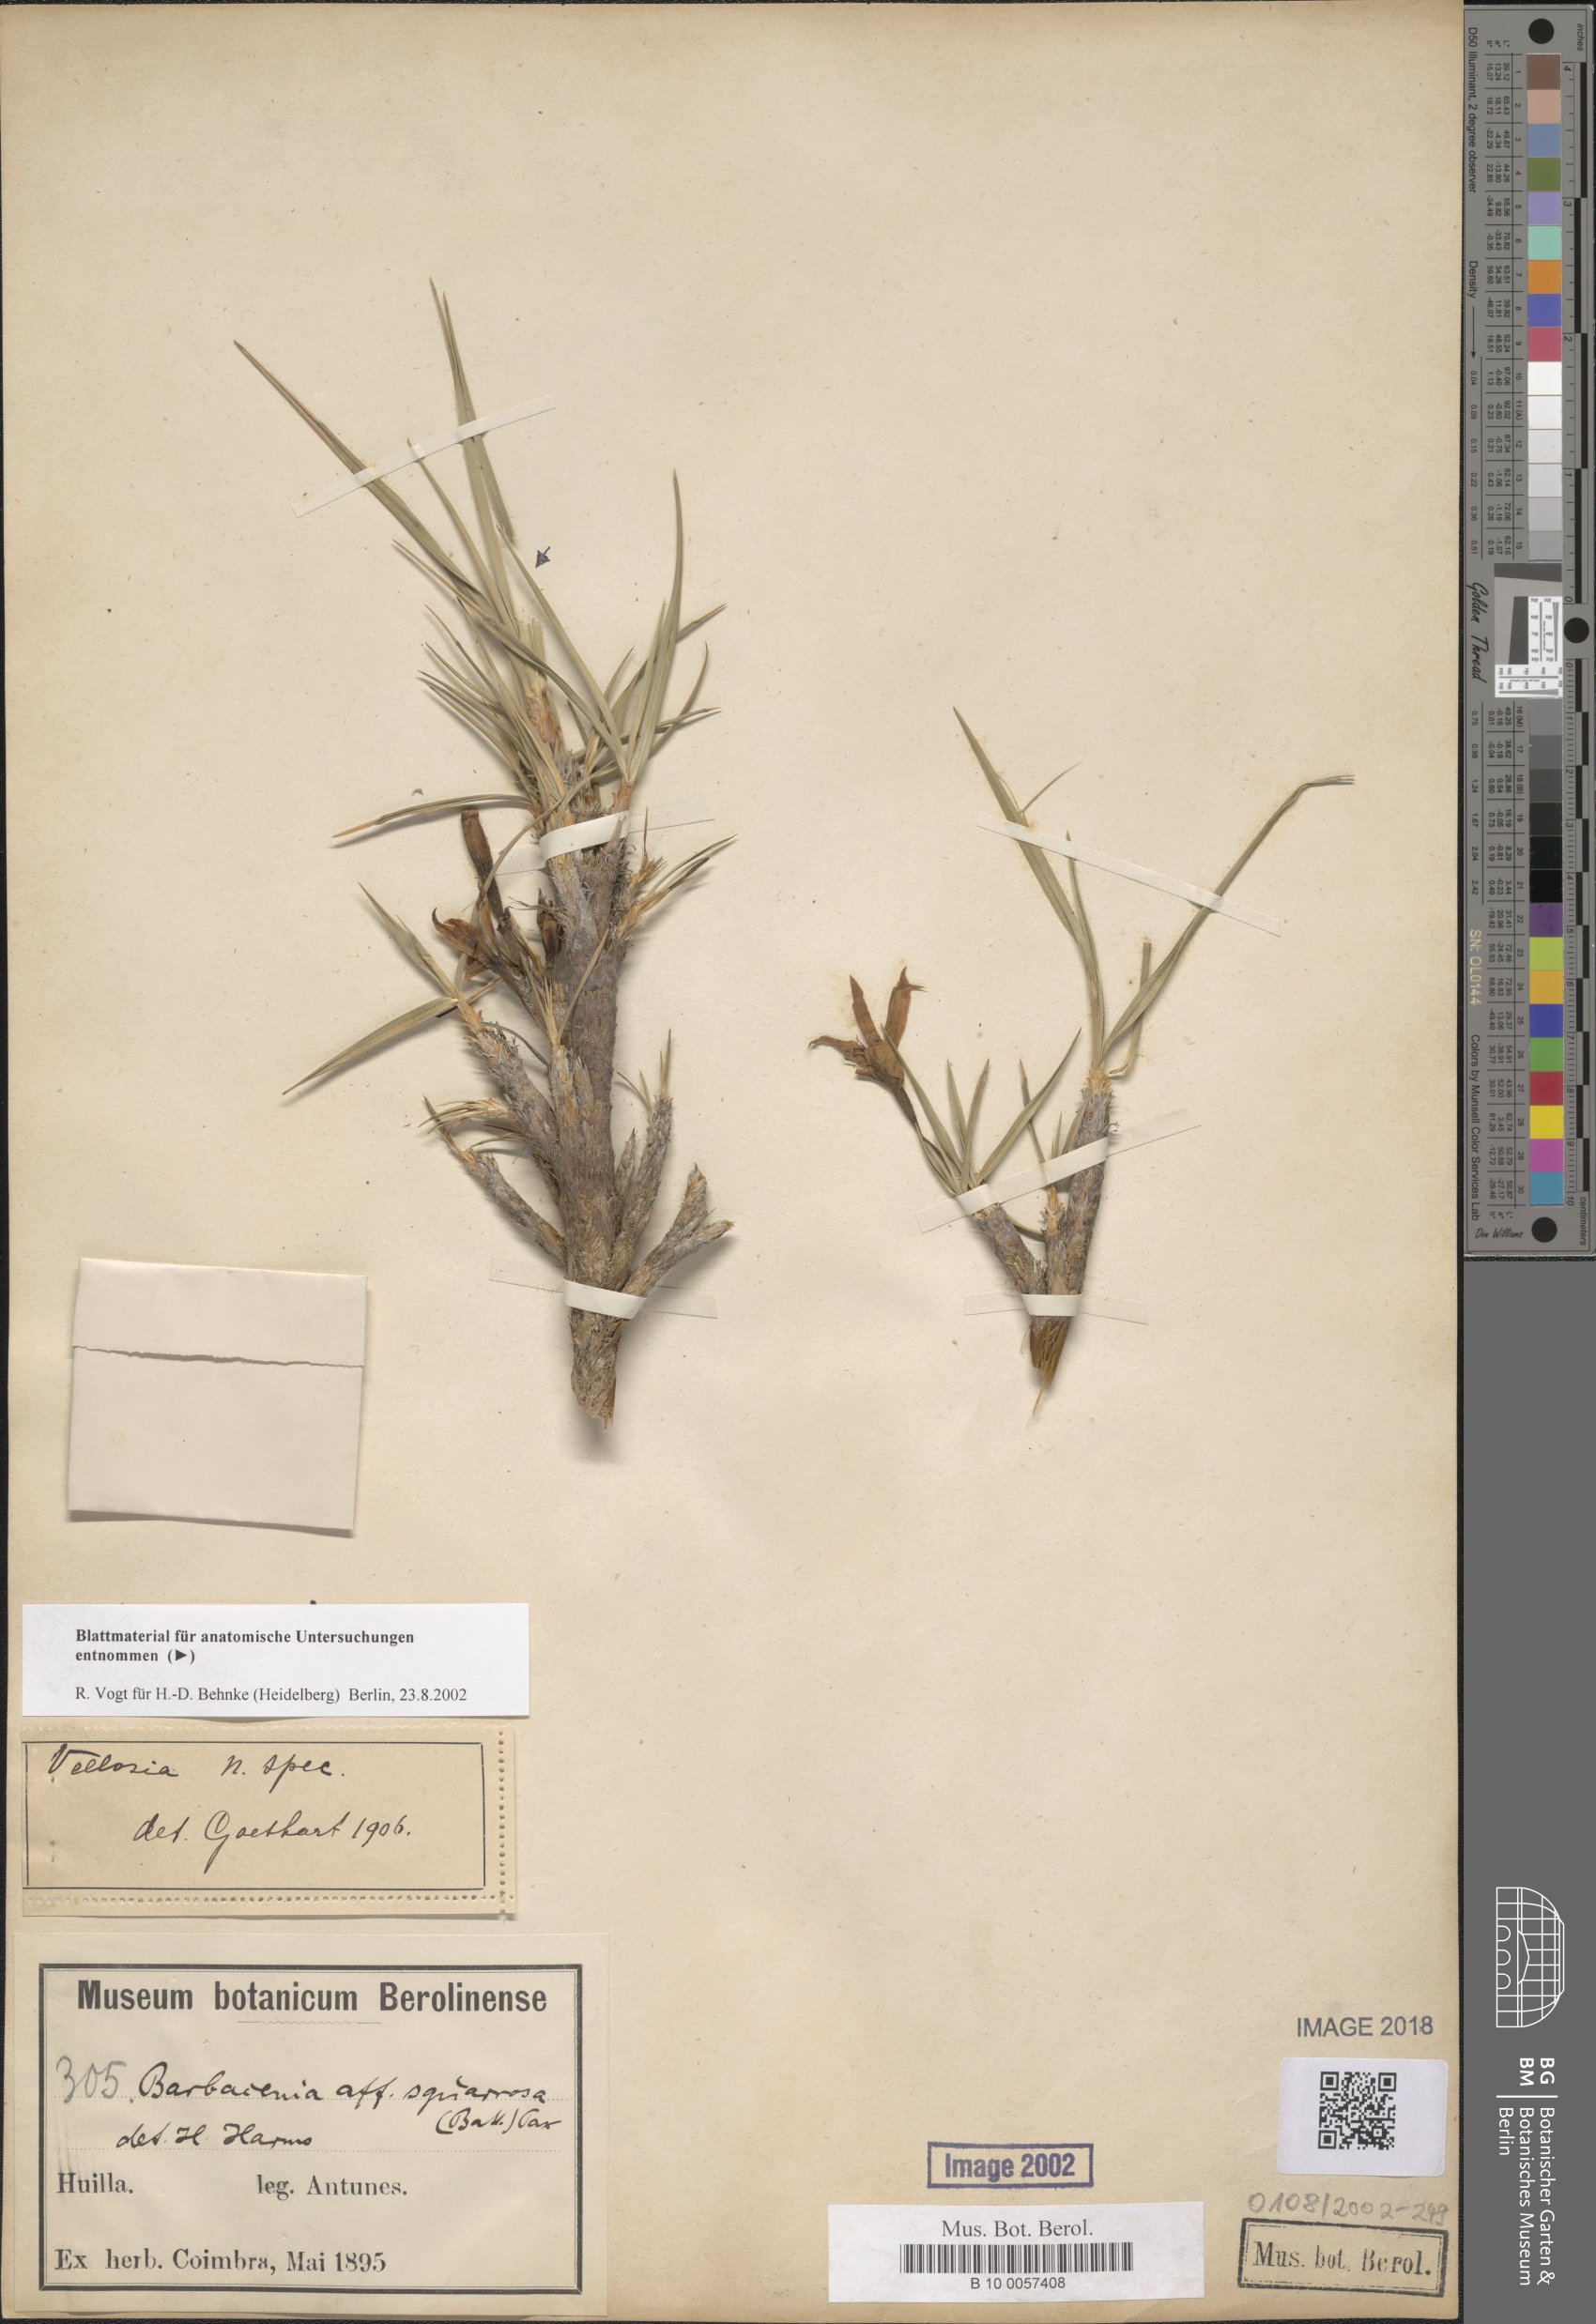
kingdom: Plantae
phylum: Tracheophyta
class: Liliopsida
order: Pandanales
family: Velloziaceae
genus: Xerophyta
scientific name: Xerophyta
